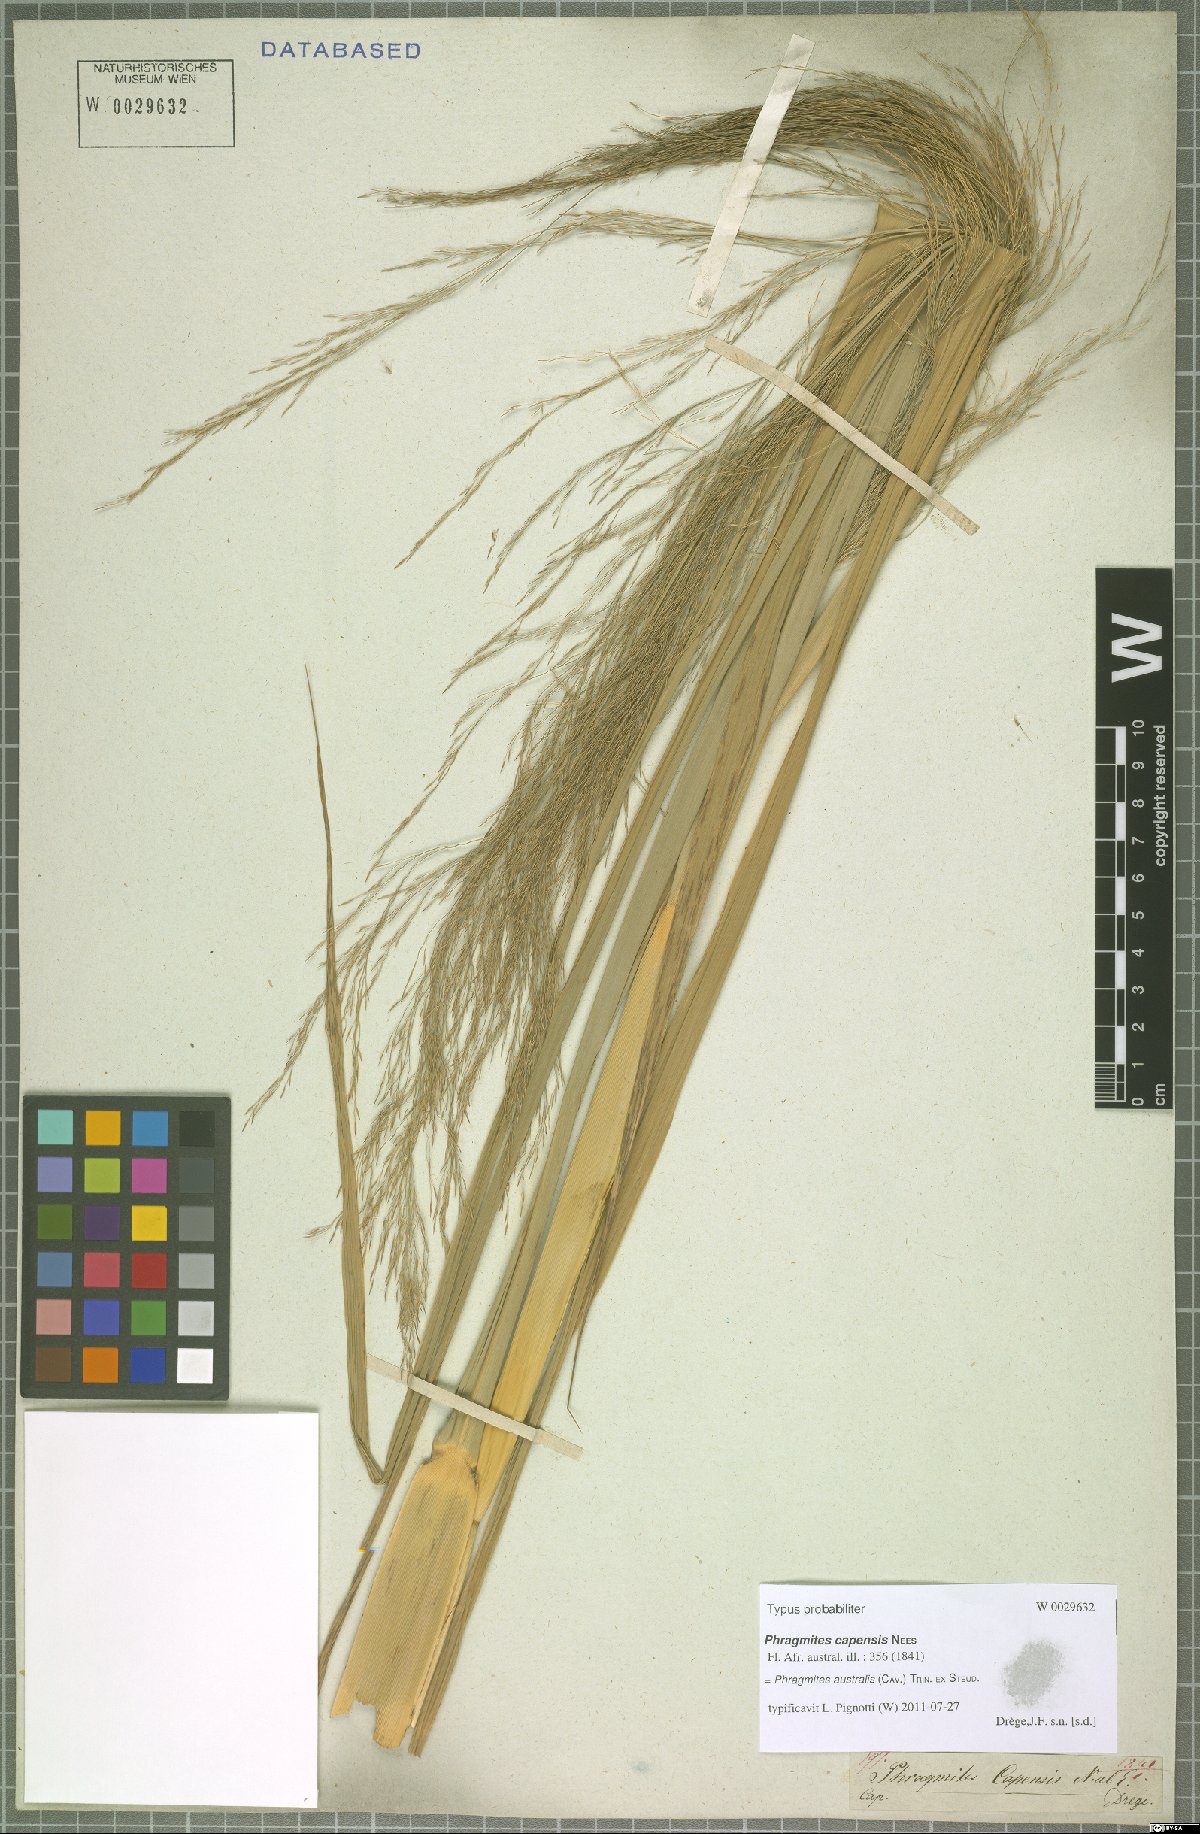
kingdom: Plantae
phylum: Tracheophyta
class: Liliopsida
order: Poales
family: Poaceae
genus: Phragmites
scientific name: Phragmites australis
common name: Common reed
